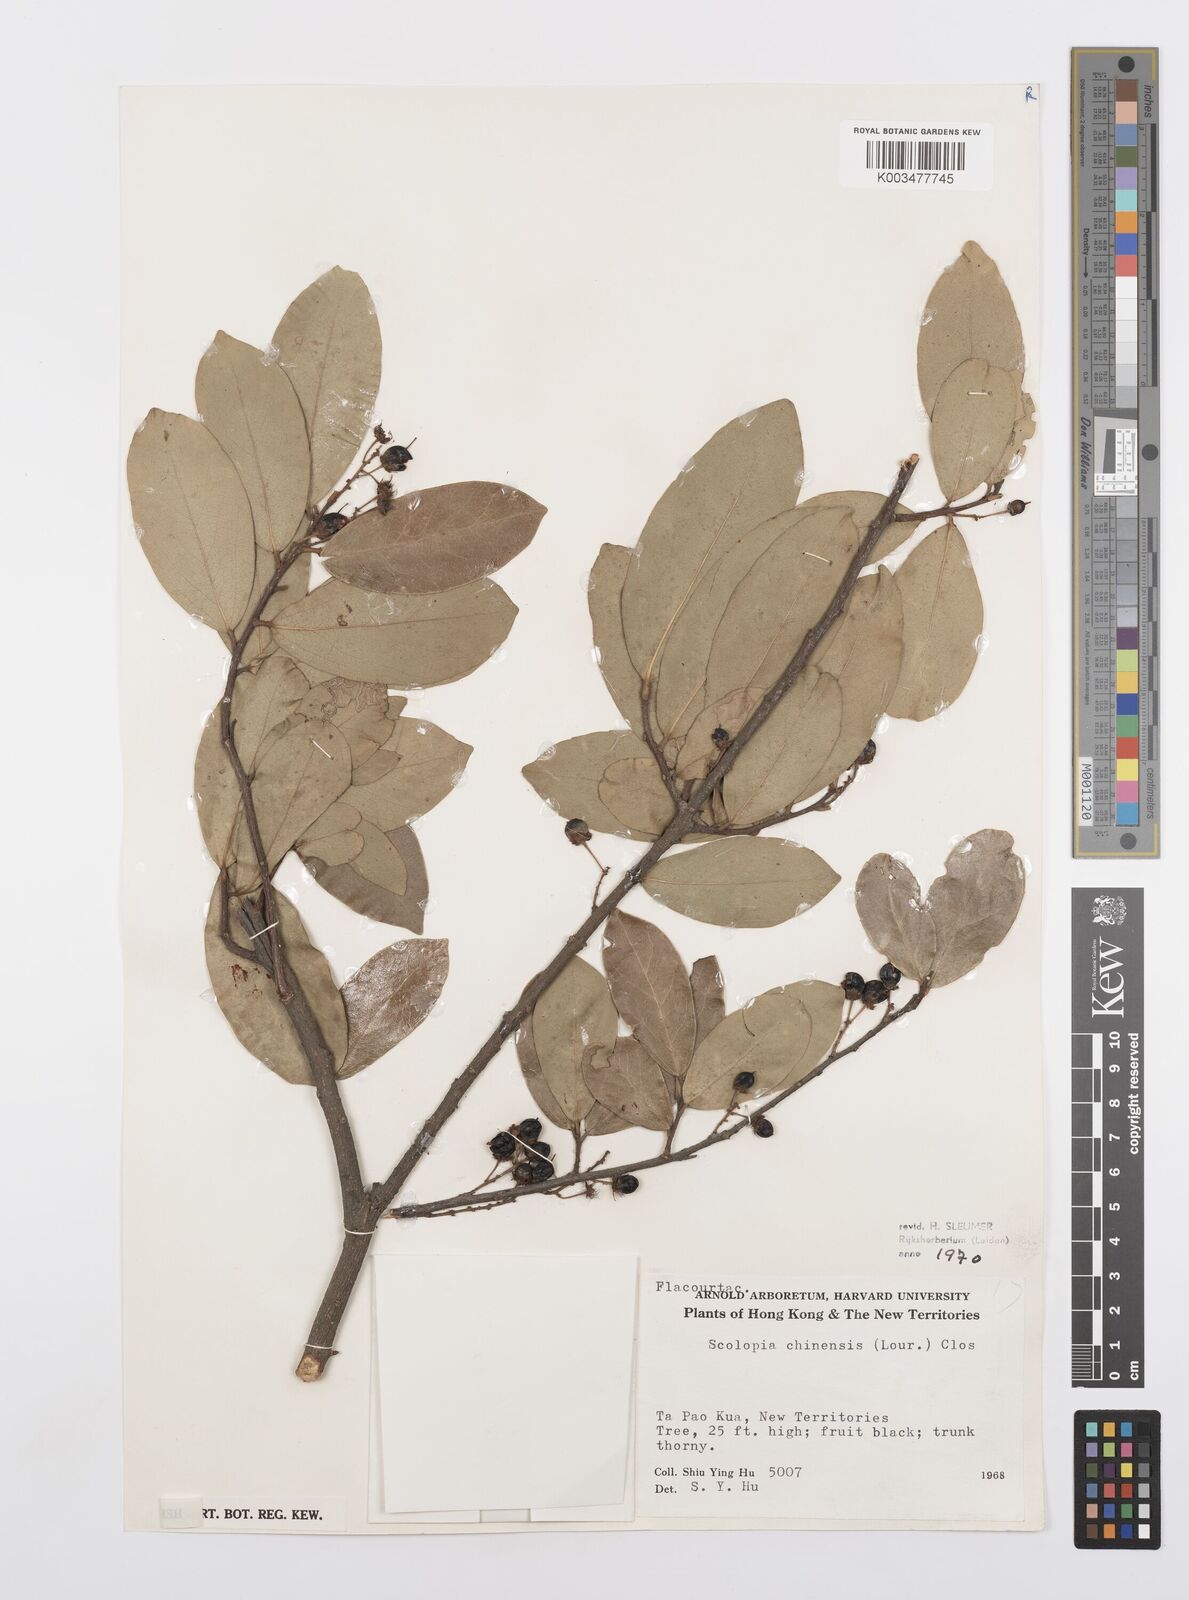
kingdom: Plantae
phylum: Tracheophyta
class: Magnoliopsida
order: Malpighiales
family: Salicaceae
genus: Scolopia
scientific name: Scolopia chinensis
